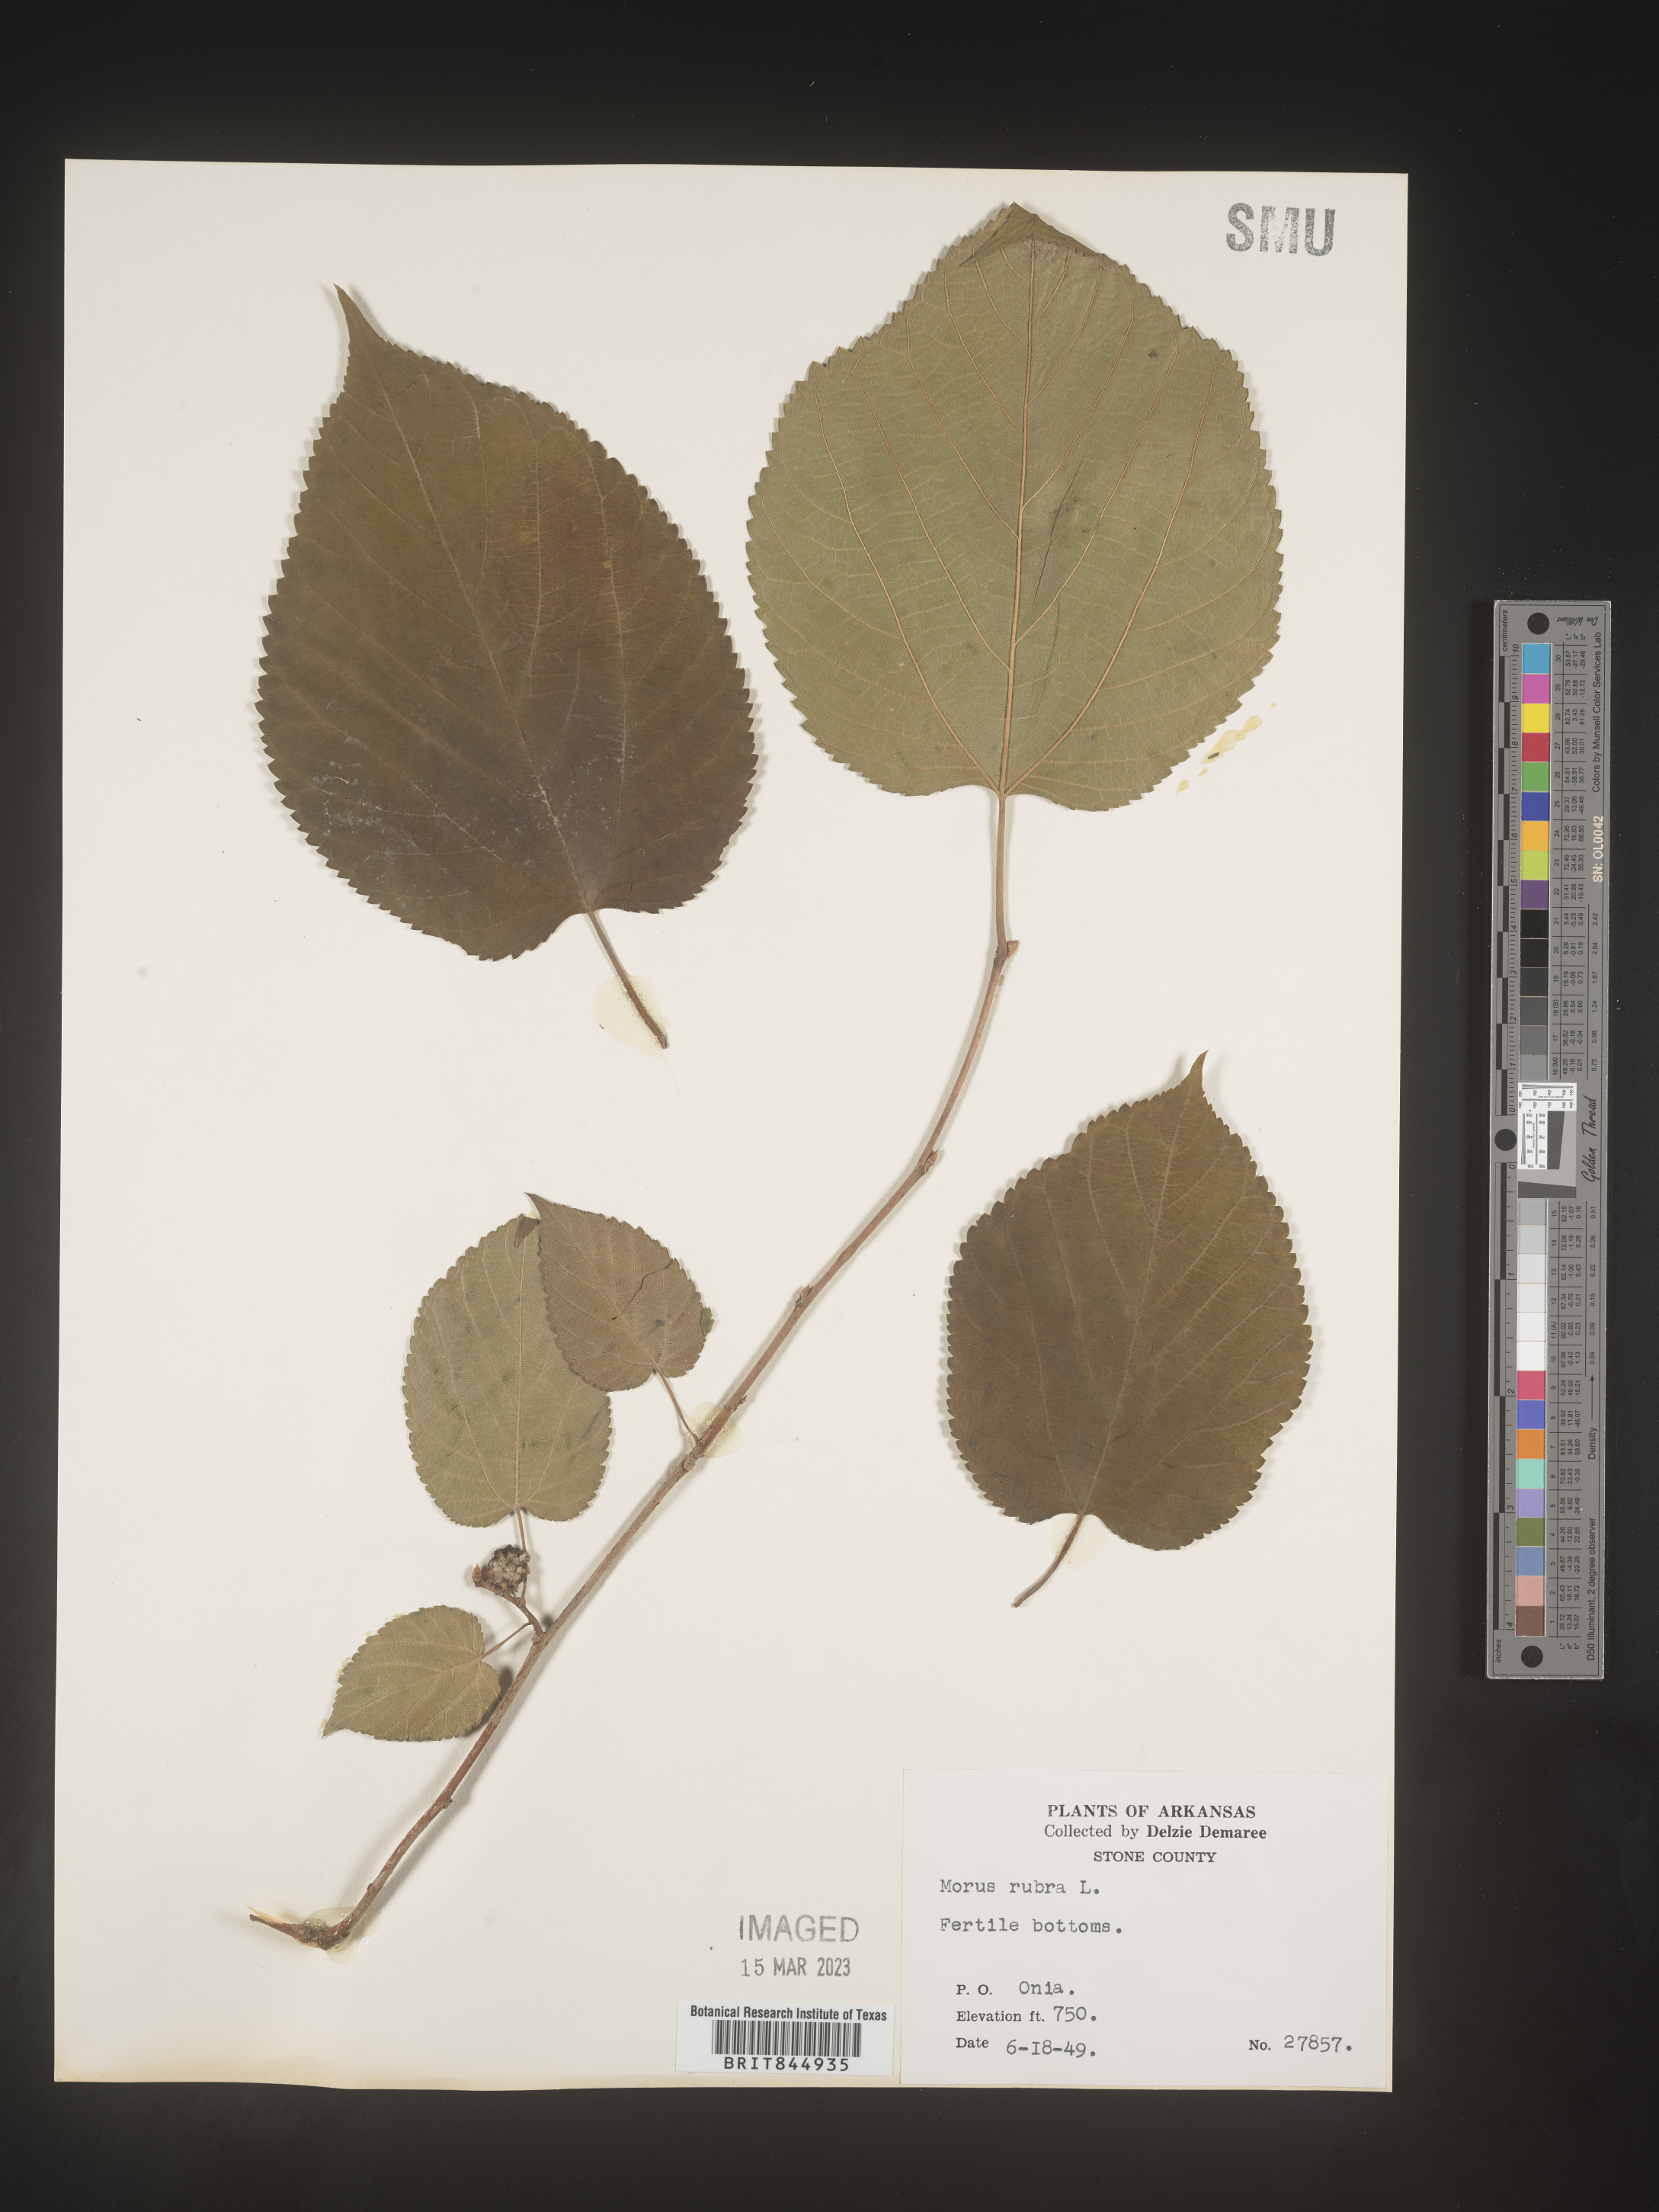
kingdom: Plantae
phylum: Tracheophyta
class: Magnoliopsida
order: Rosales
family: Moraceae
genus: Morus
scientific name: Morus rubra
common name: Red mulberry
